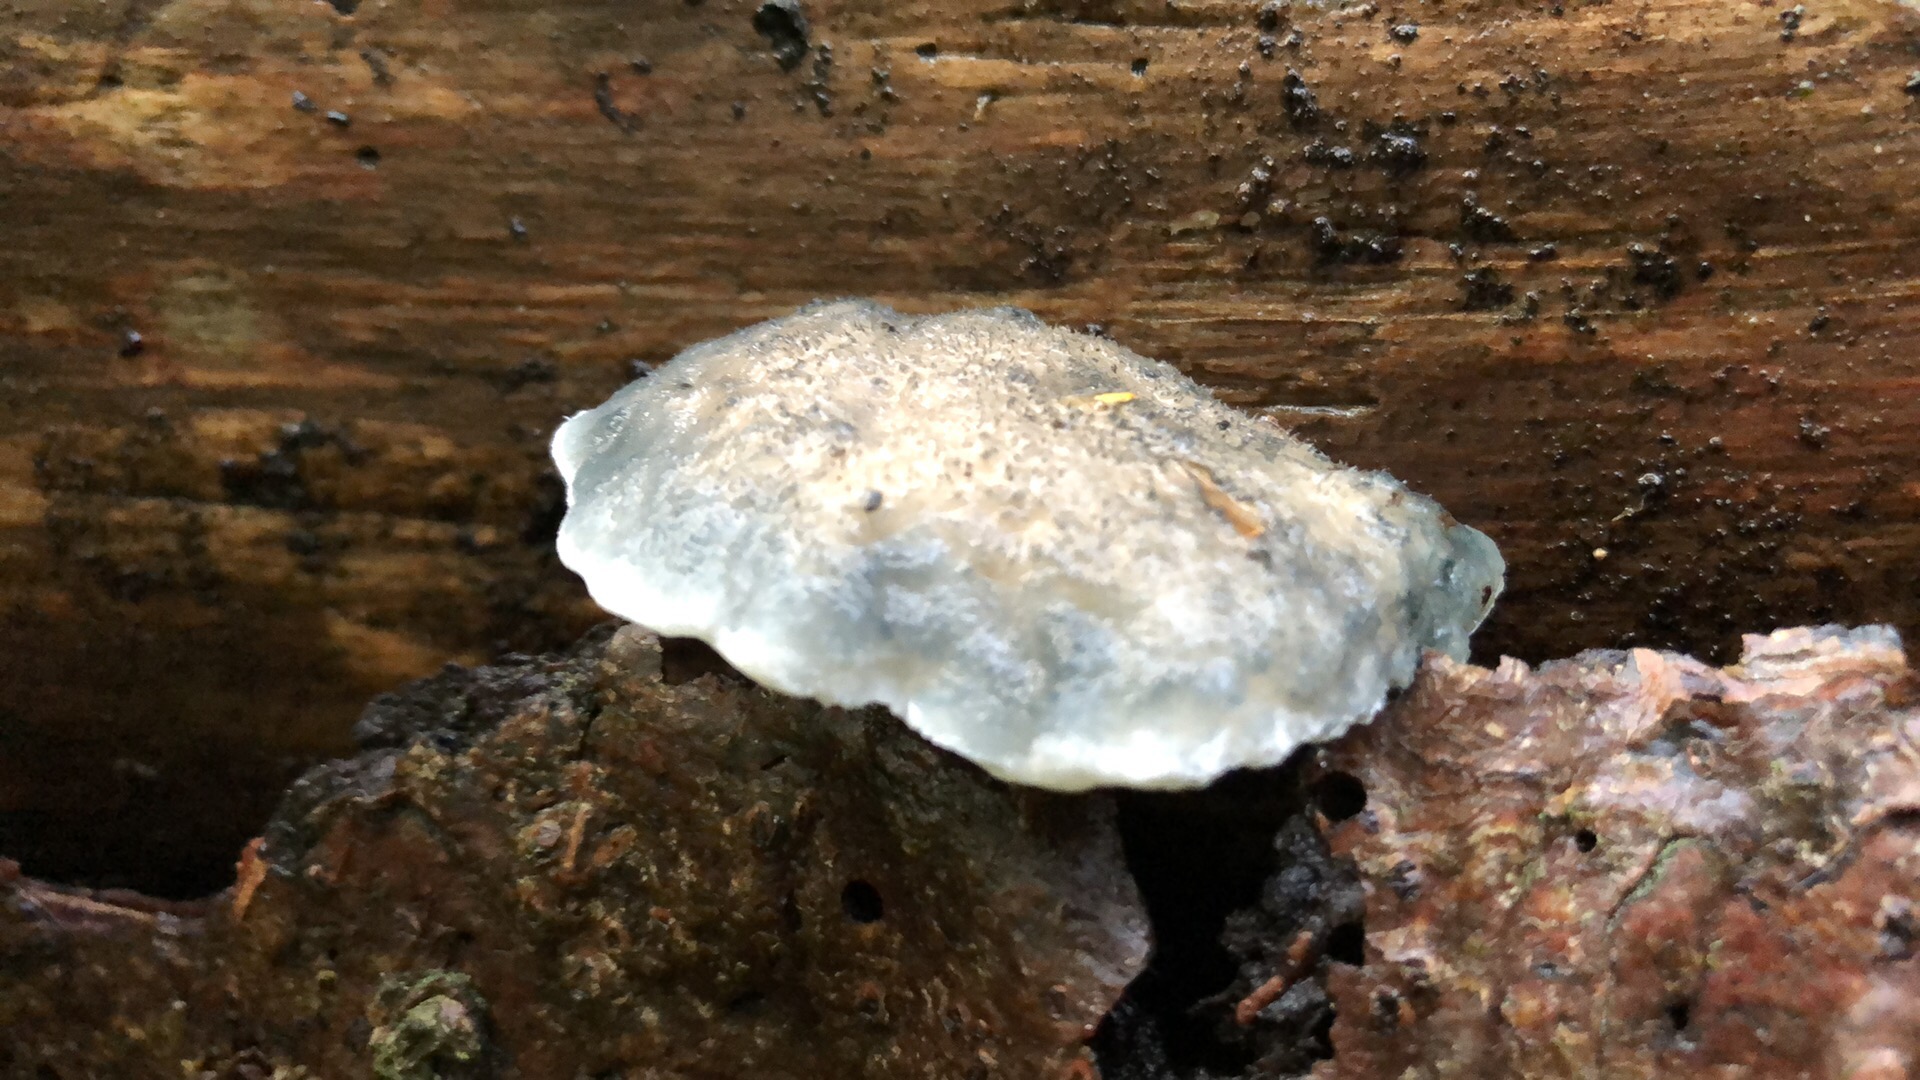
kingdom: Fungi
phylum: Basidiomycota
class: Agaricomycetes
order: Polyporales
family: Polyporaceae
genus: Cyanosporus
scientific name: Cyanosporus caesius
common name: blålig kødporesvamp
